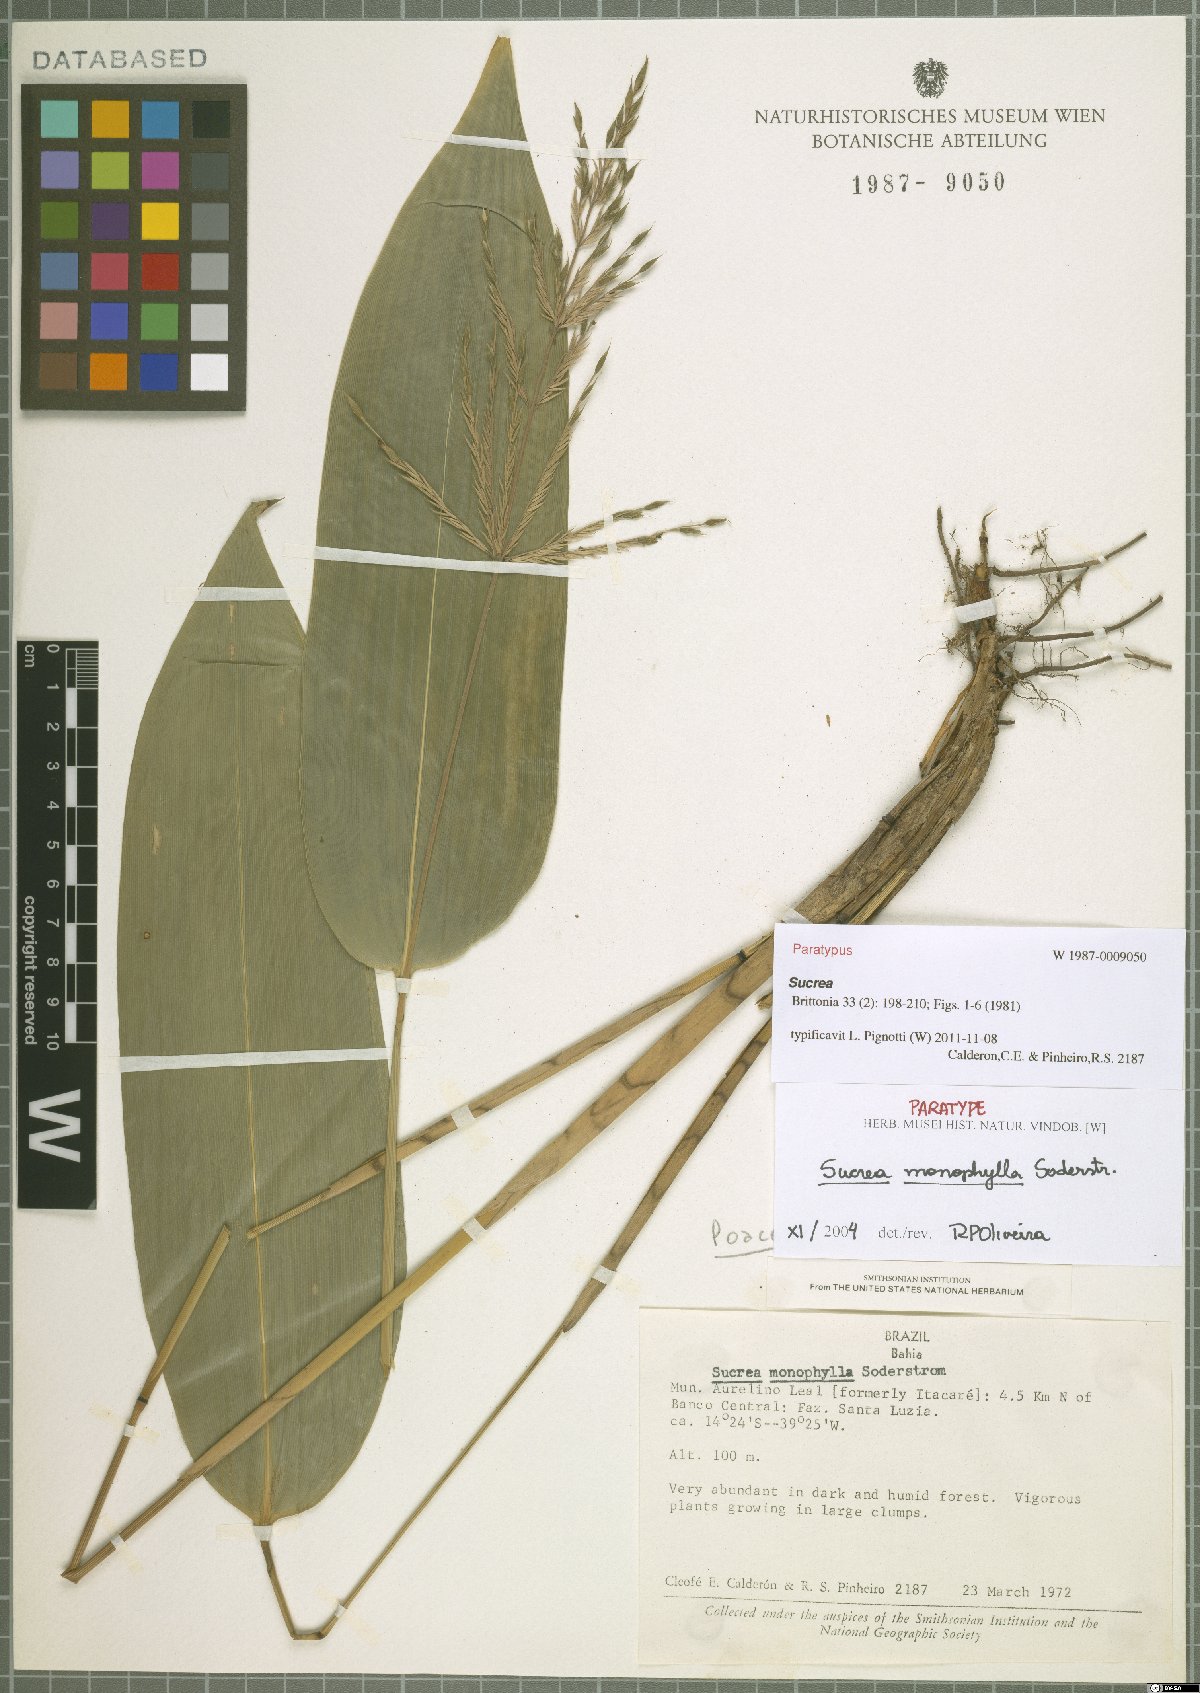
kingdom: Plantae
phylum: Tracheophyta
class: Liliopsida
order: Poales
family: Poaceae
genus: Raddia
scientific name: Raddia monophylla
